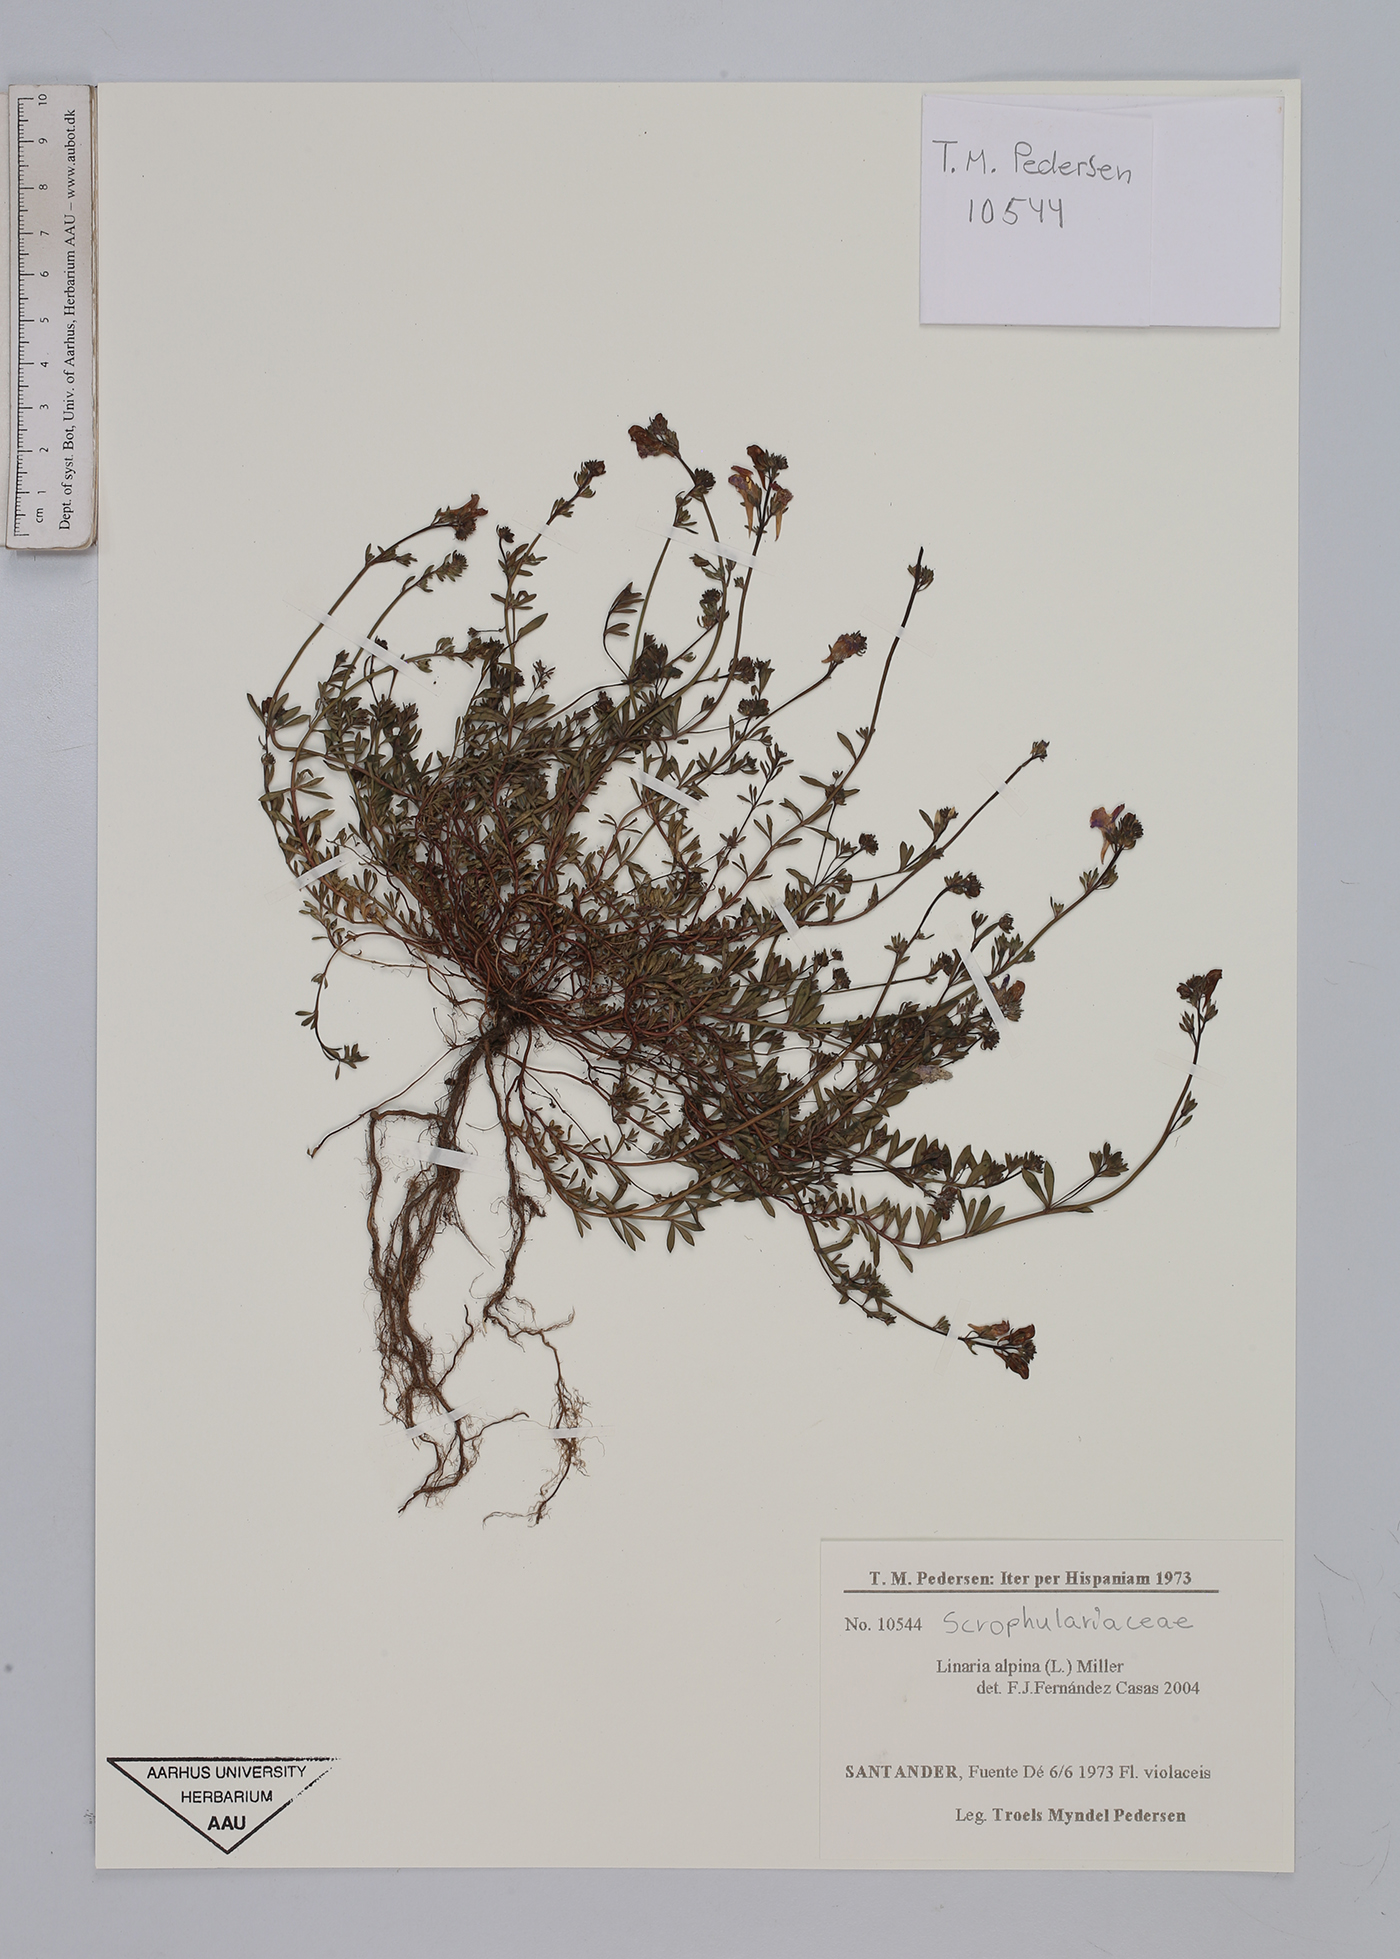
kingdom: Plantae
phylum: Tracheophyta
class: Magnoliopsida
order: Lamiales
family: Plantaginaceae
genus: Linaria
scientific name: Linaria alpina
